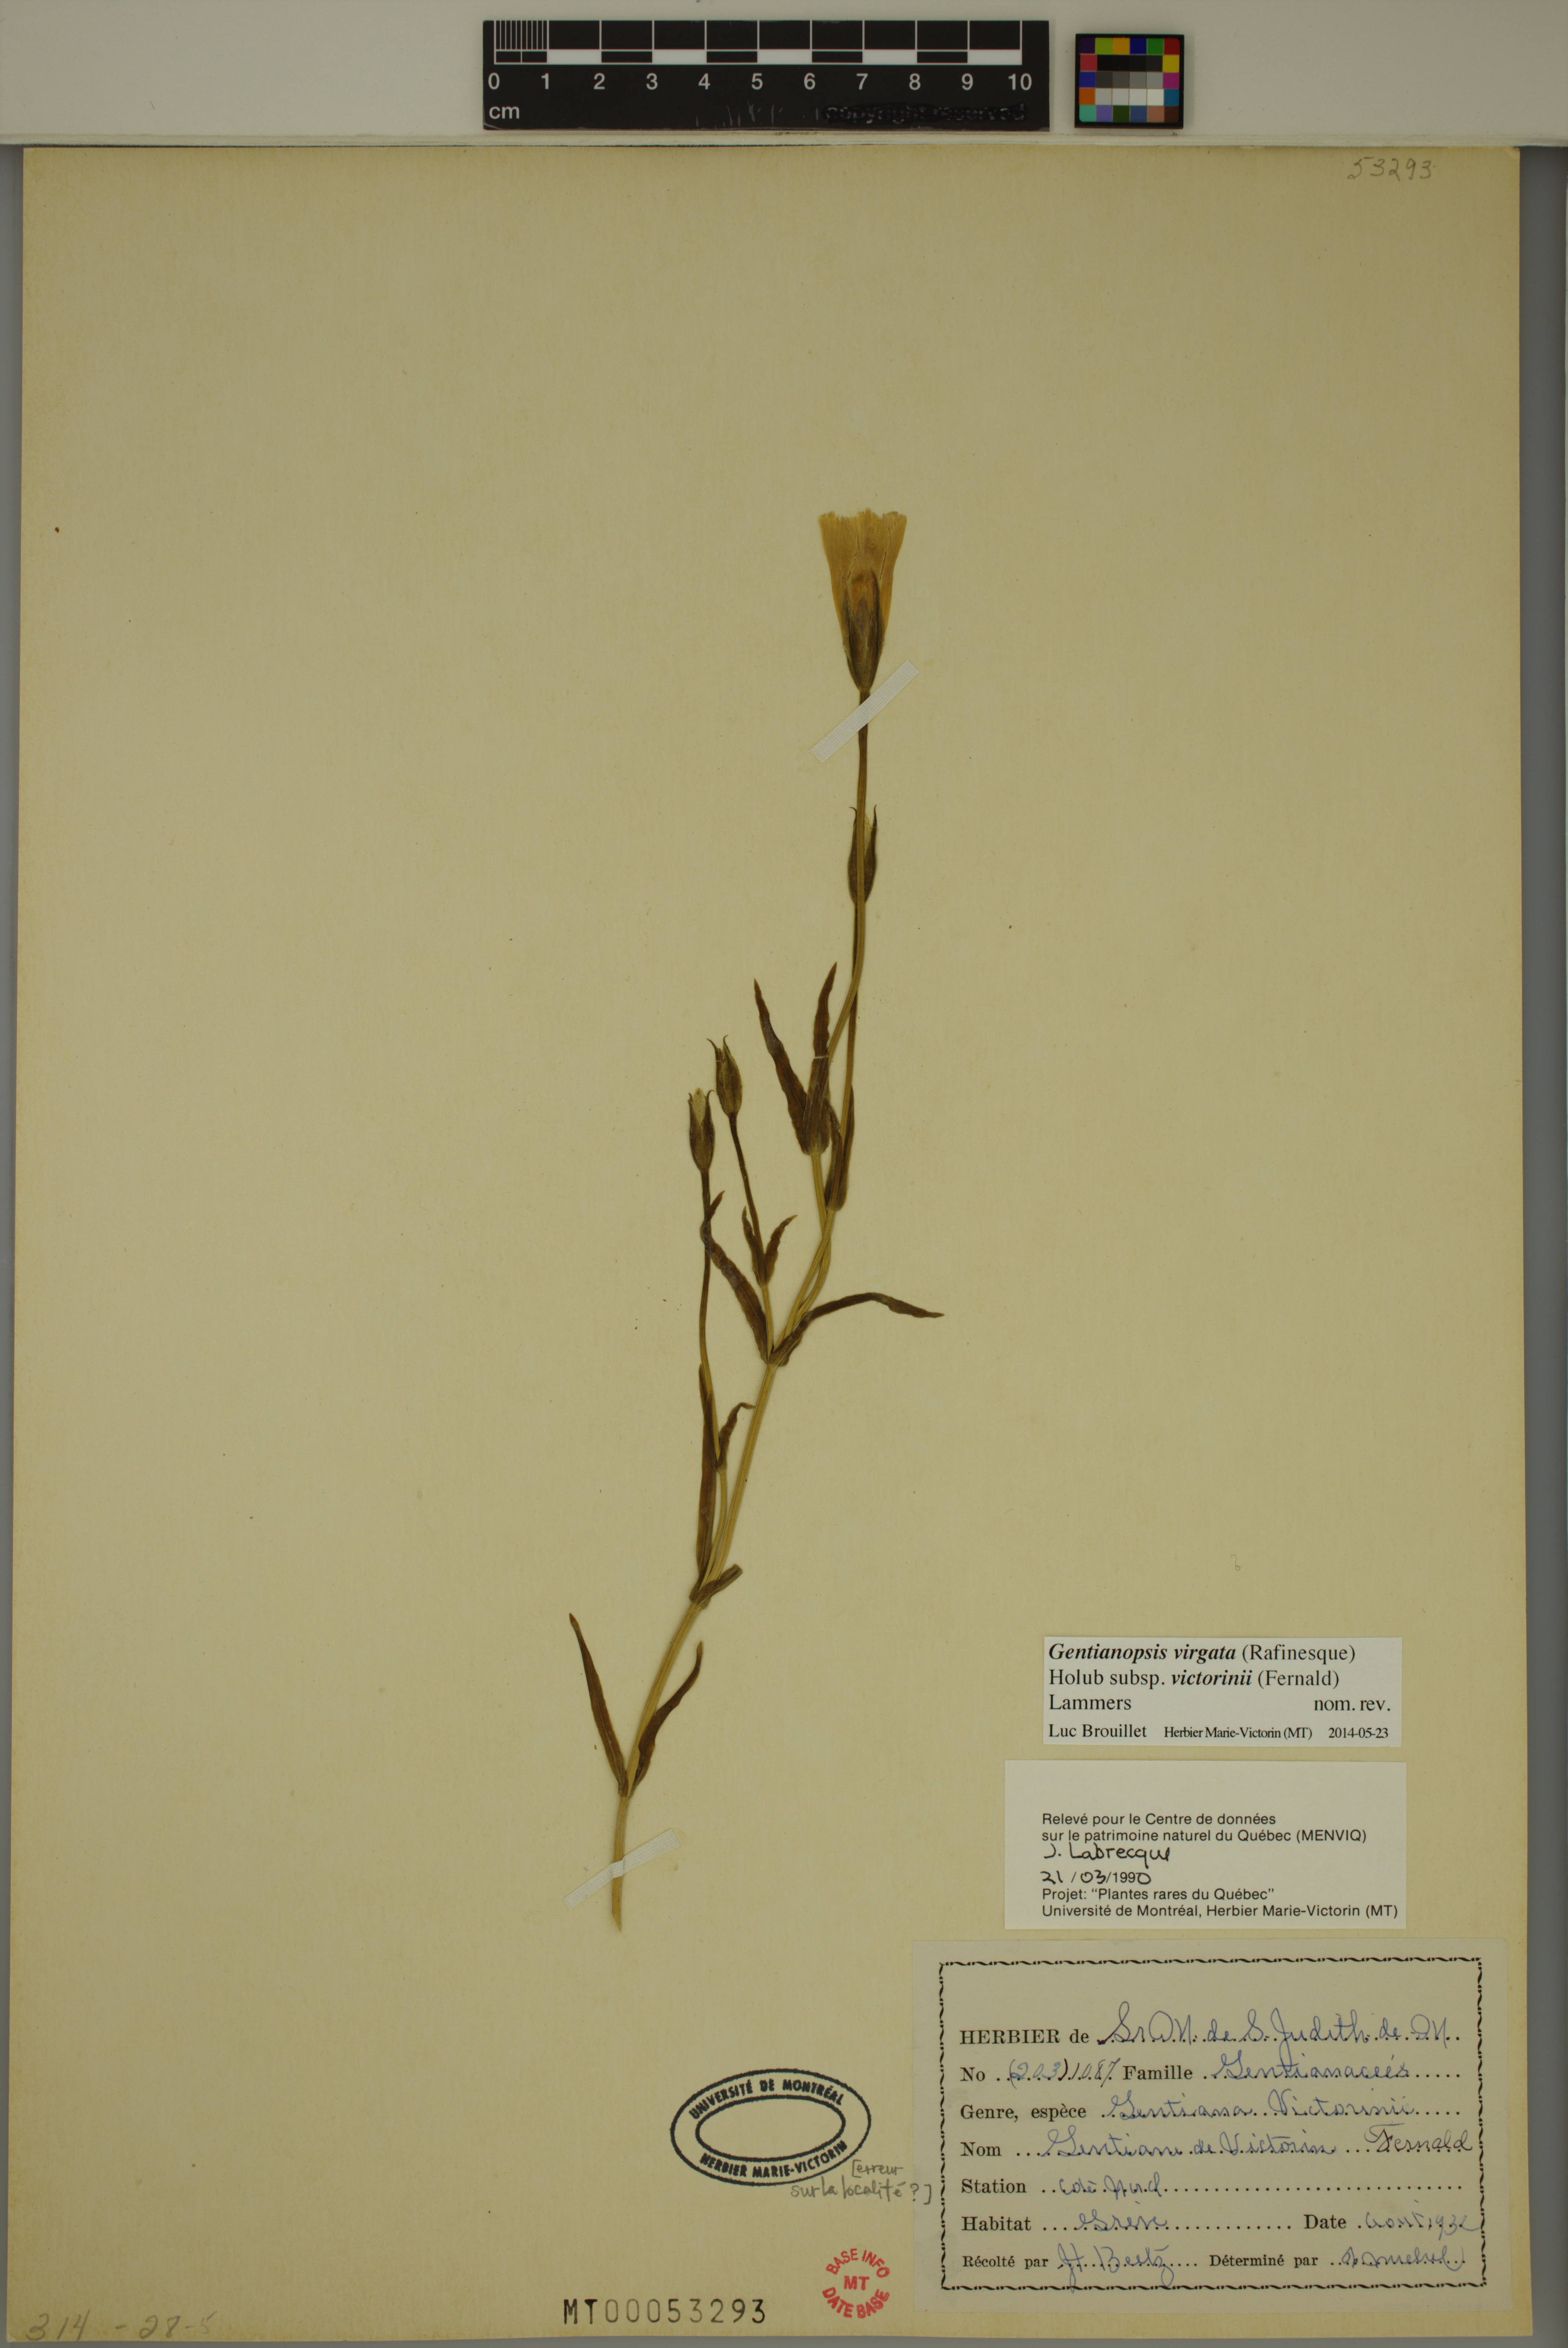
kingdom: Plantae
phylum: Tracheophyta
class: Magnoliopsida
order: Gentianales
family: Gentianaceae
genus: Gentianopsis
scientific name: Gentianopsis victorinii
